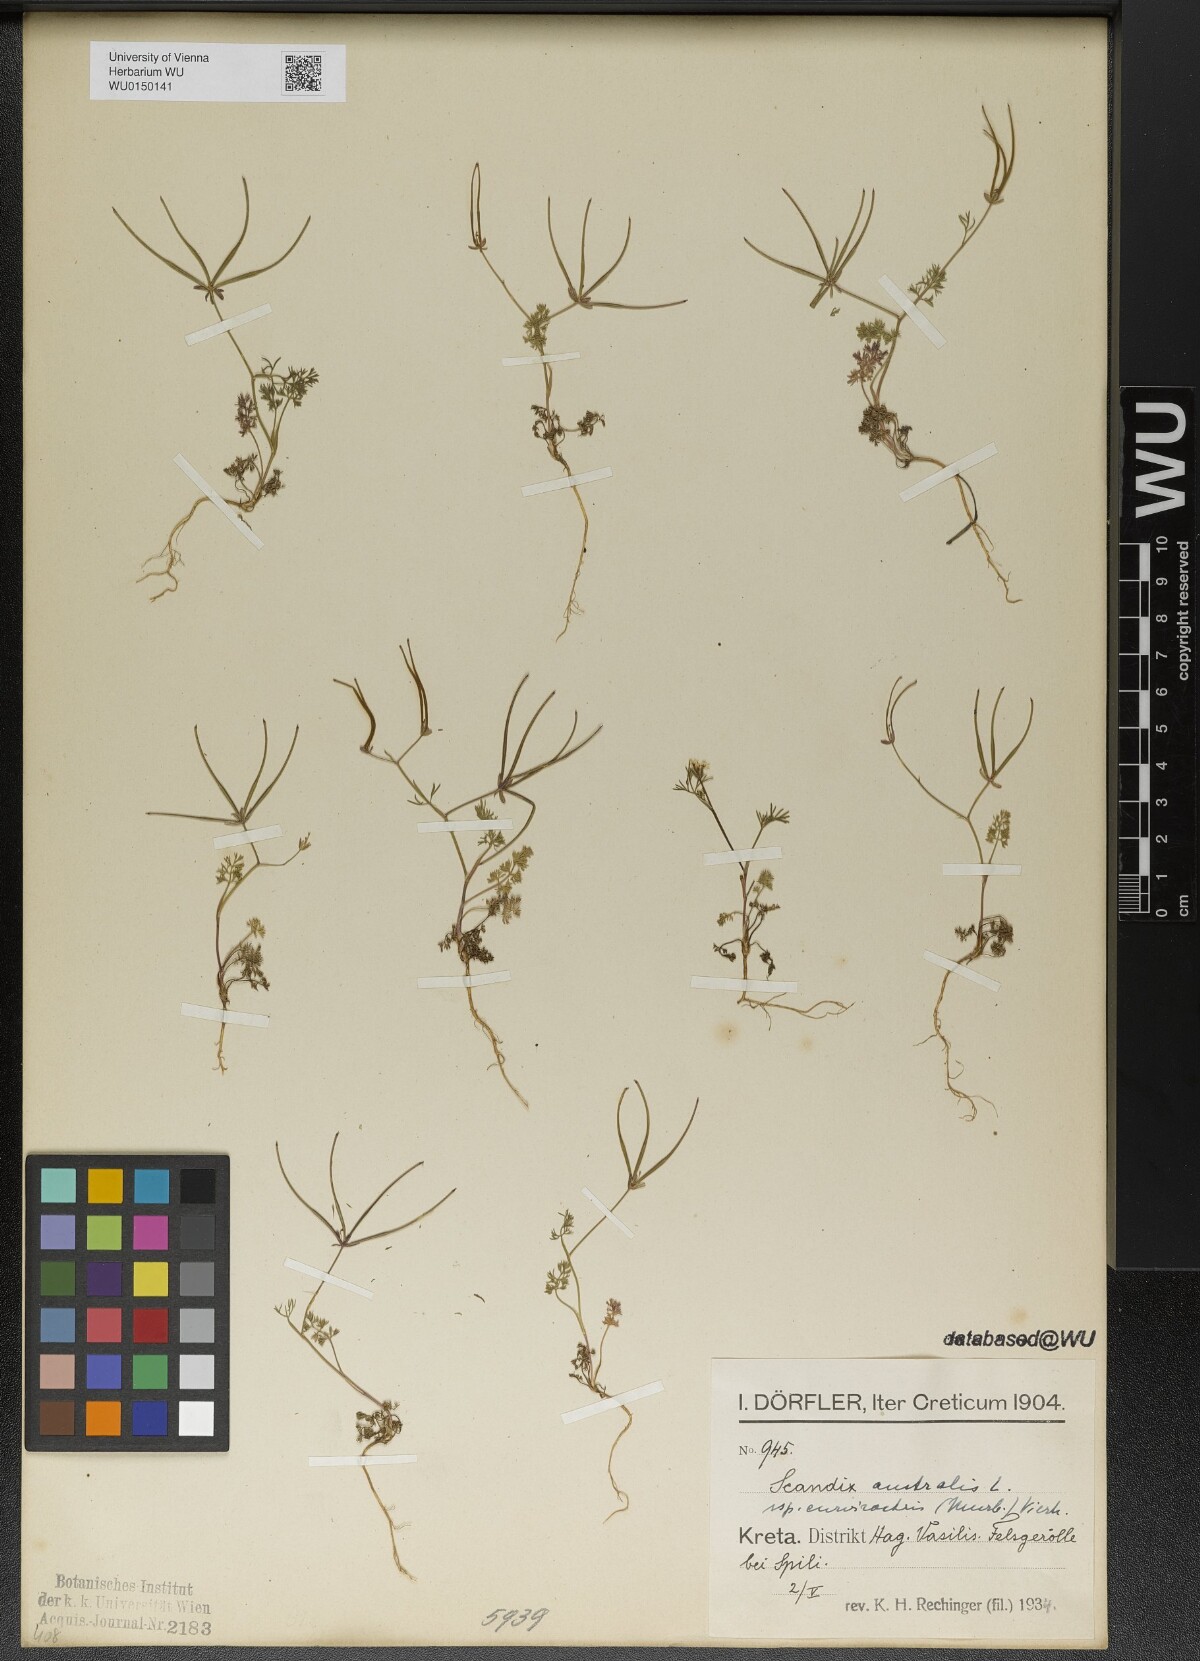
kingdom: Plantae
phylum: Tracheophyta
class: Magnoliopsida
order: Apiales
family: Apiaceae
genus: Scandix
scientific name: Scandix australis
